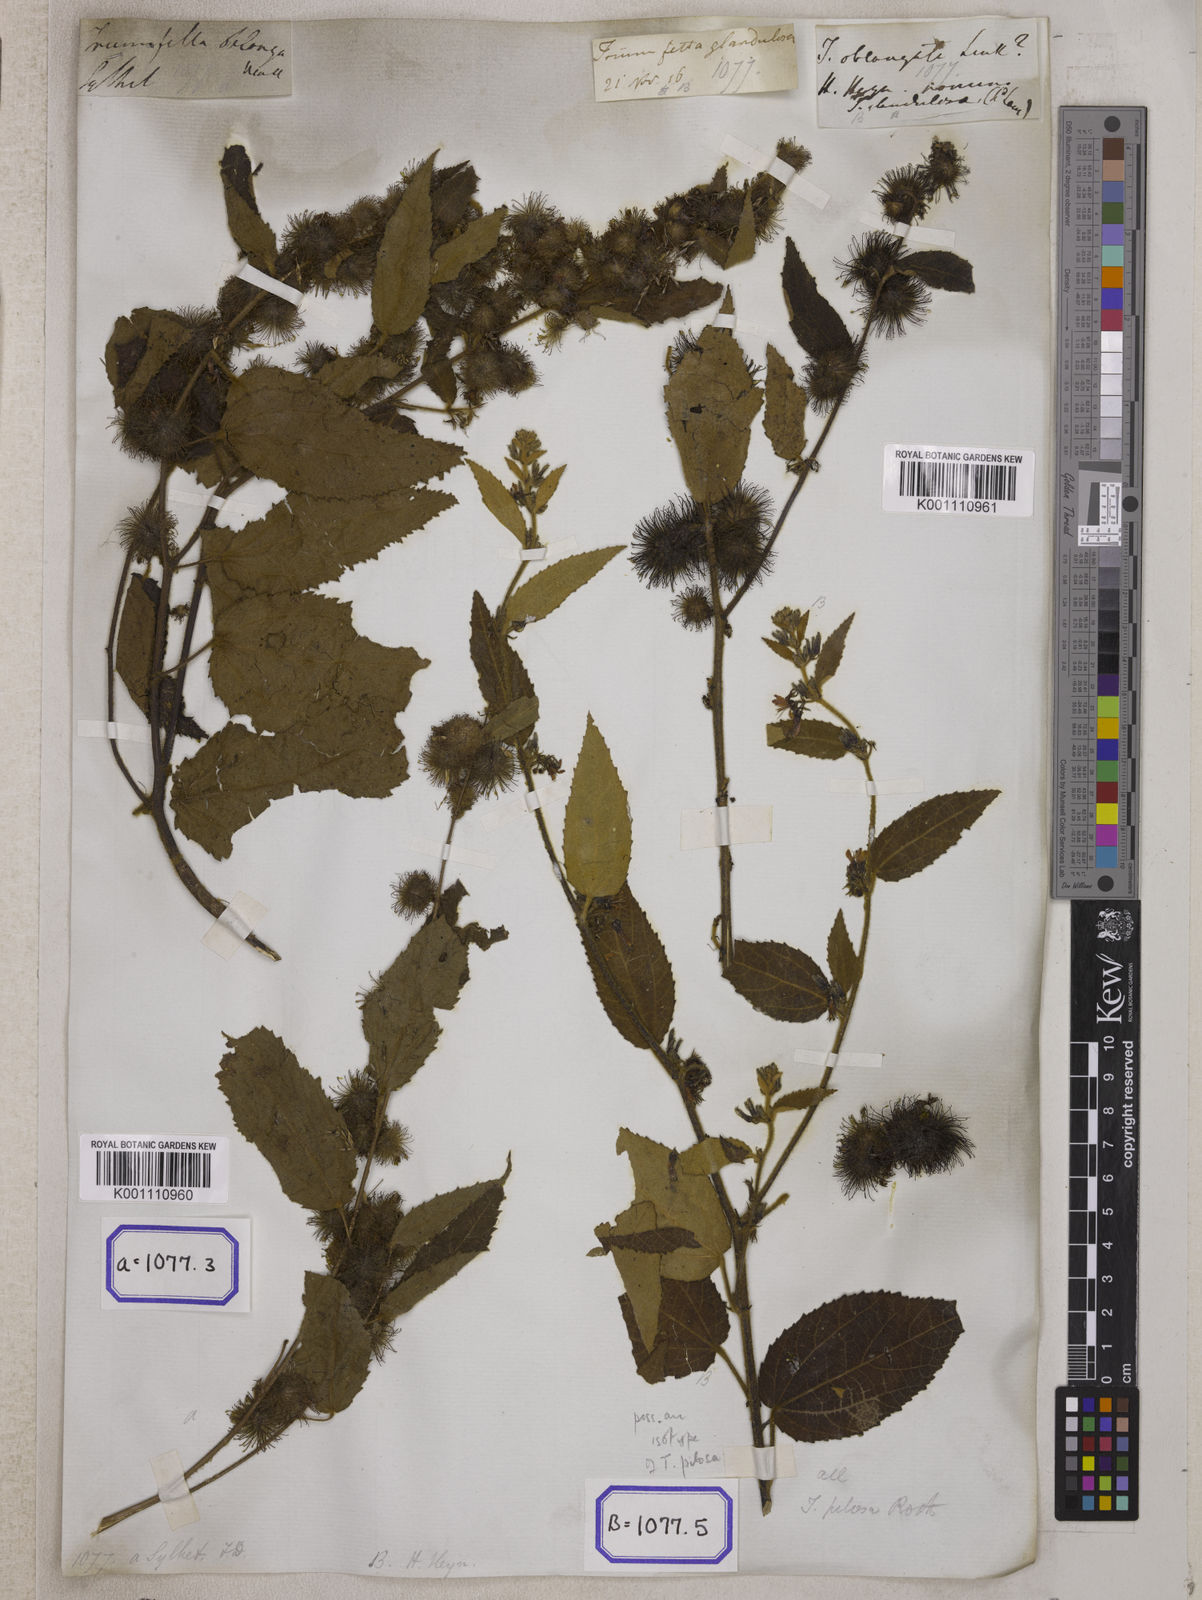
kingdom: Plantae
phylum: Tracheophyta
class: Magnoliopsida
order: Malvales
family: Malvaceae
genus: Triumfetta
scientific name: Triumfetta pilosa
